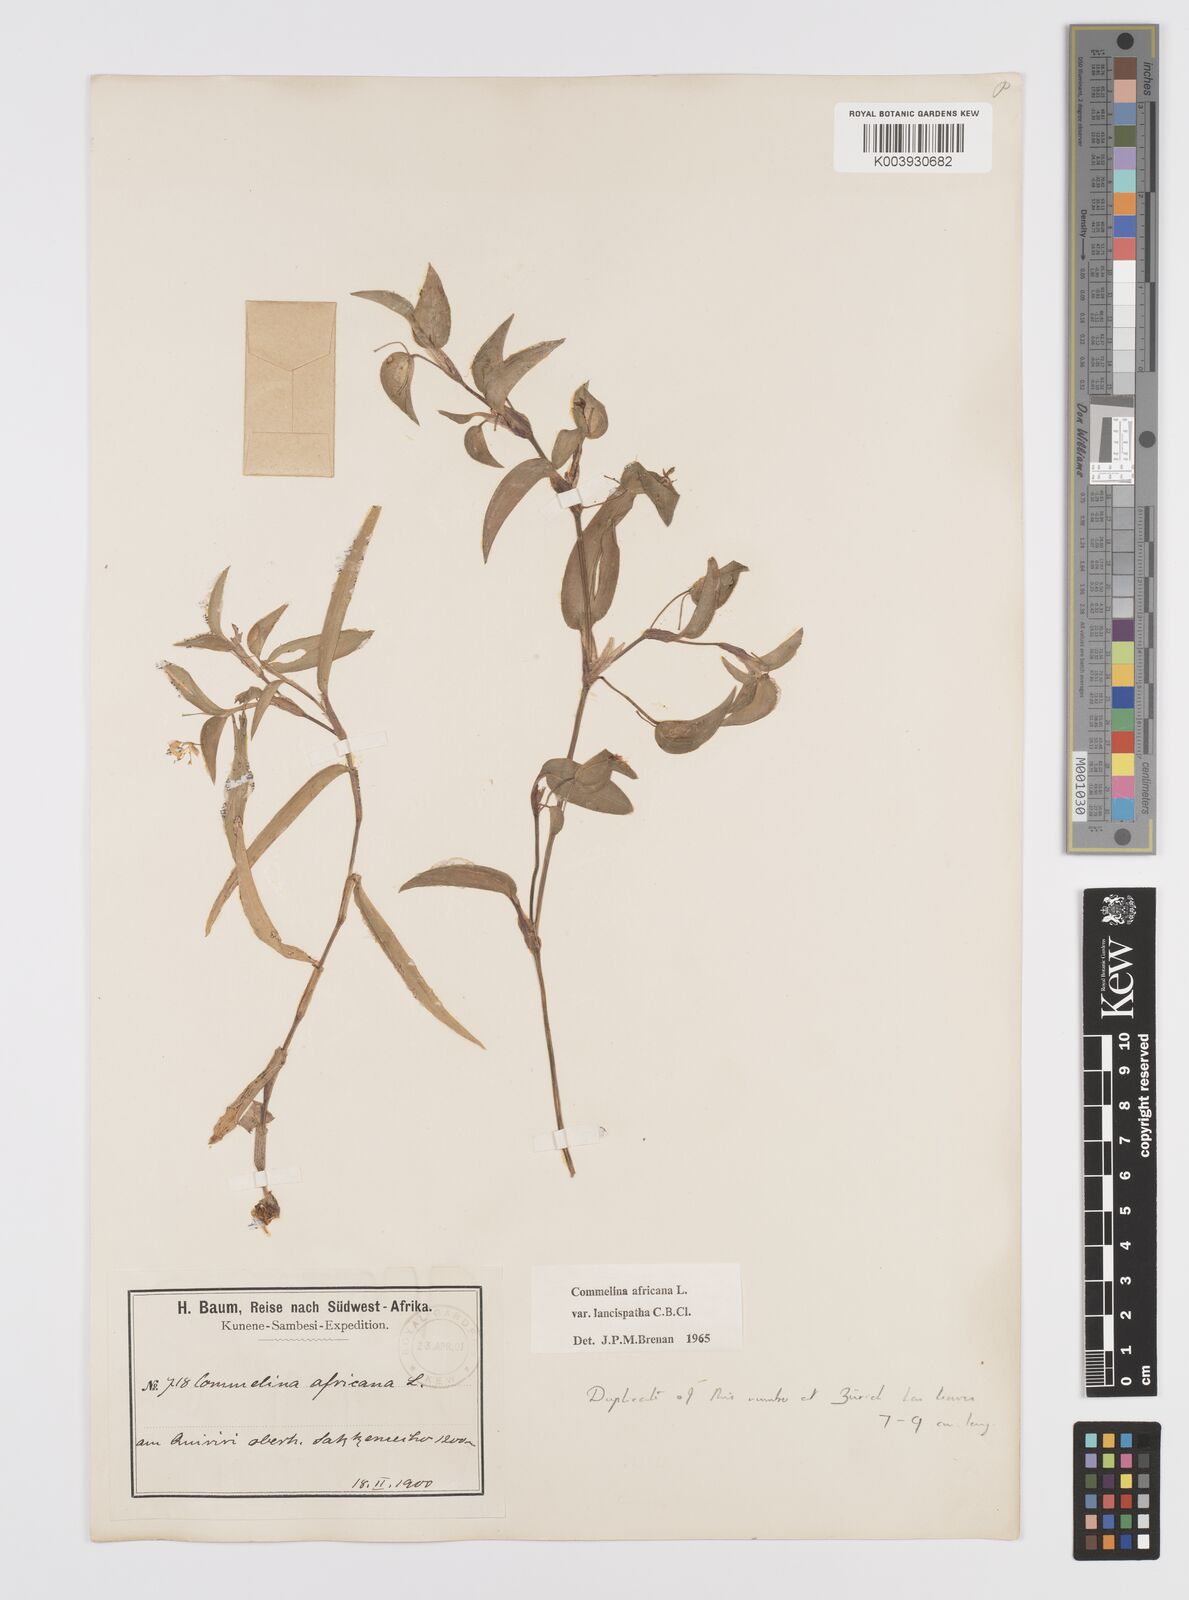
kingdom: Plantae
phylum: Tracheophyta
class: Liliopsida
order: Commelinales
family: Commelinaceae
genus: Commelina
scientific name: Commelina africana
